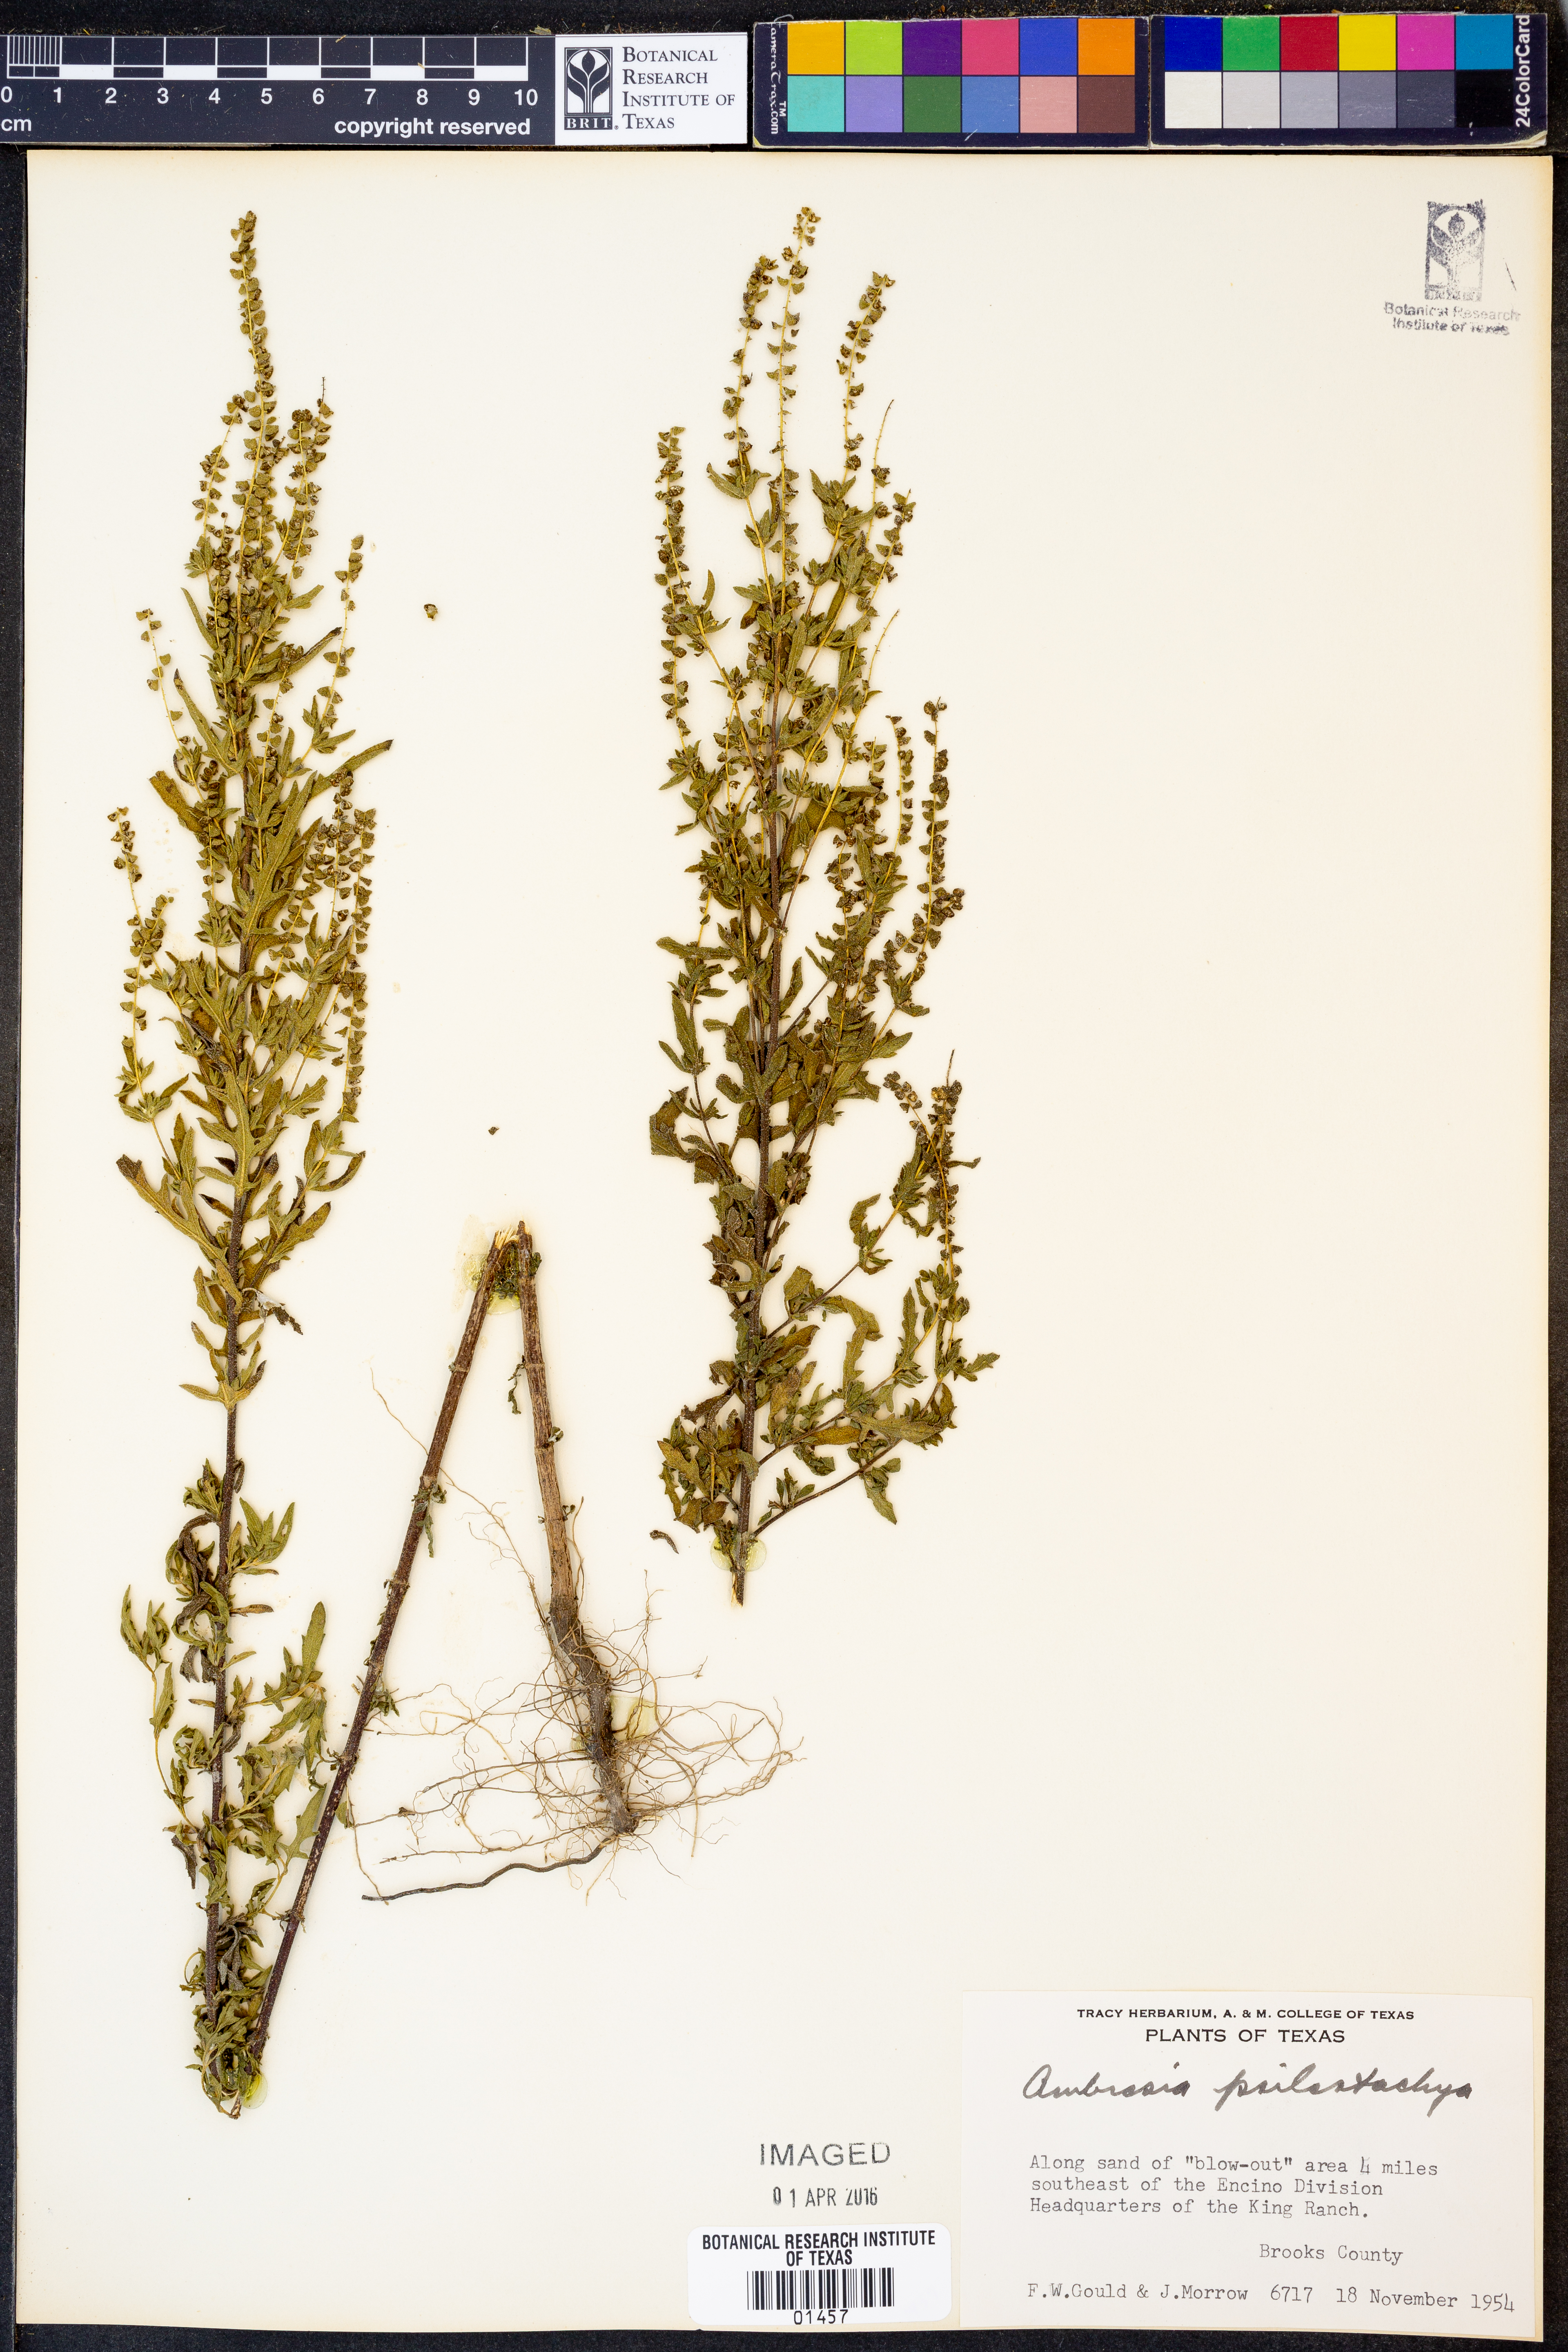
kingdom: Plantae
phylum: Tracheophyta
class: Magnoliopsida
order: Asterales
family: Asteraceae
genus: Ambrosia
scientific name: Ambrosia psilostachya
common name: Perennial ragweed
